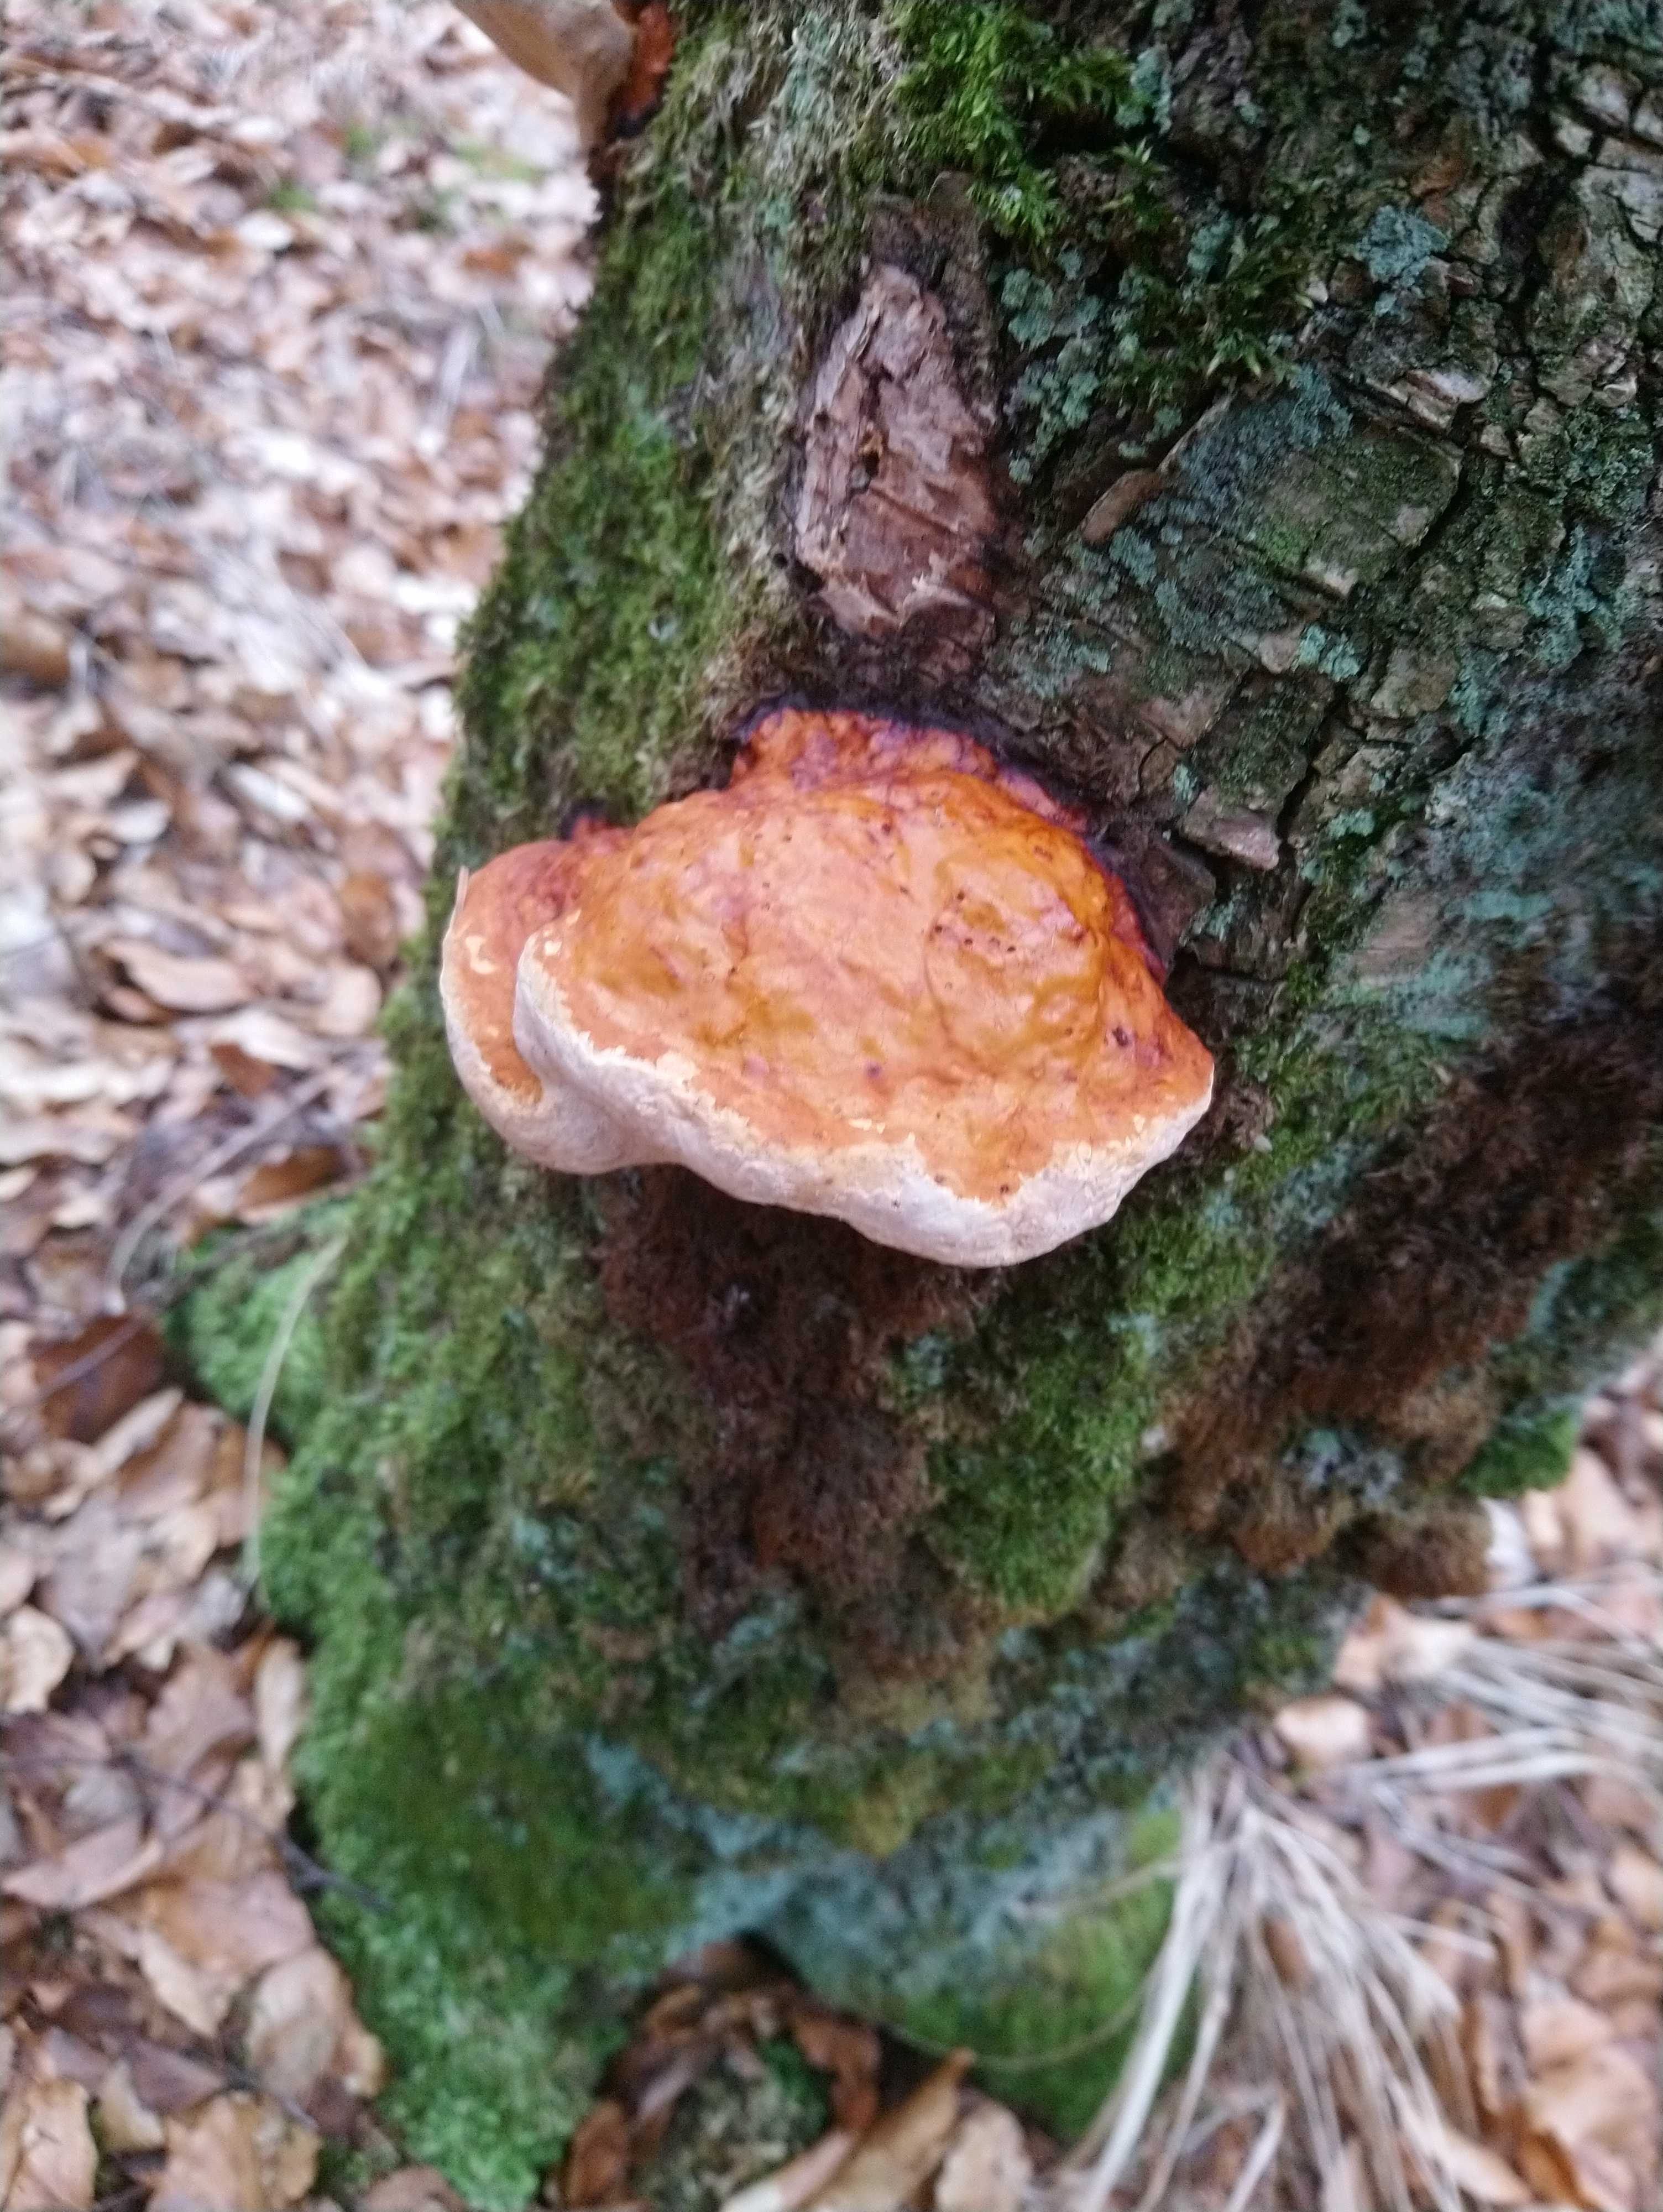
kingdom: Fungi
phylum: Basidiomycota
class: Agaricomycetes
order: Polyporales
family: Fomitopsidaceae
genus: Fomitopsis
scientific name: Fomitopsis pinicola
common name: randbæltet hovporesvamp
